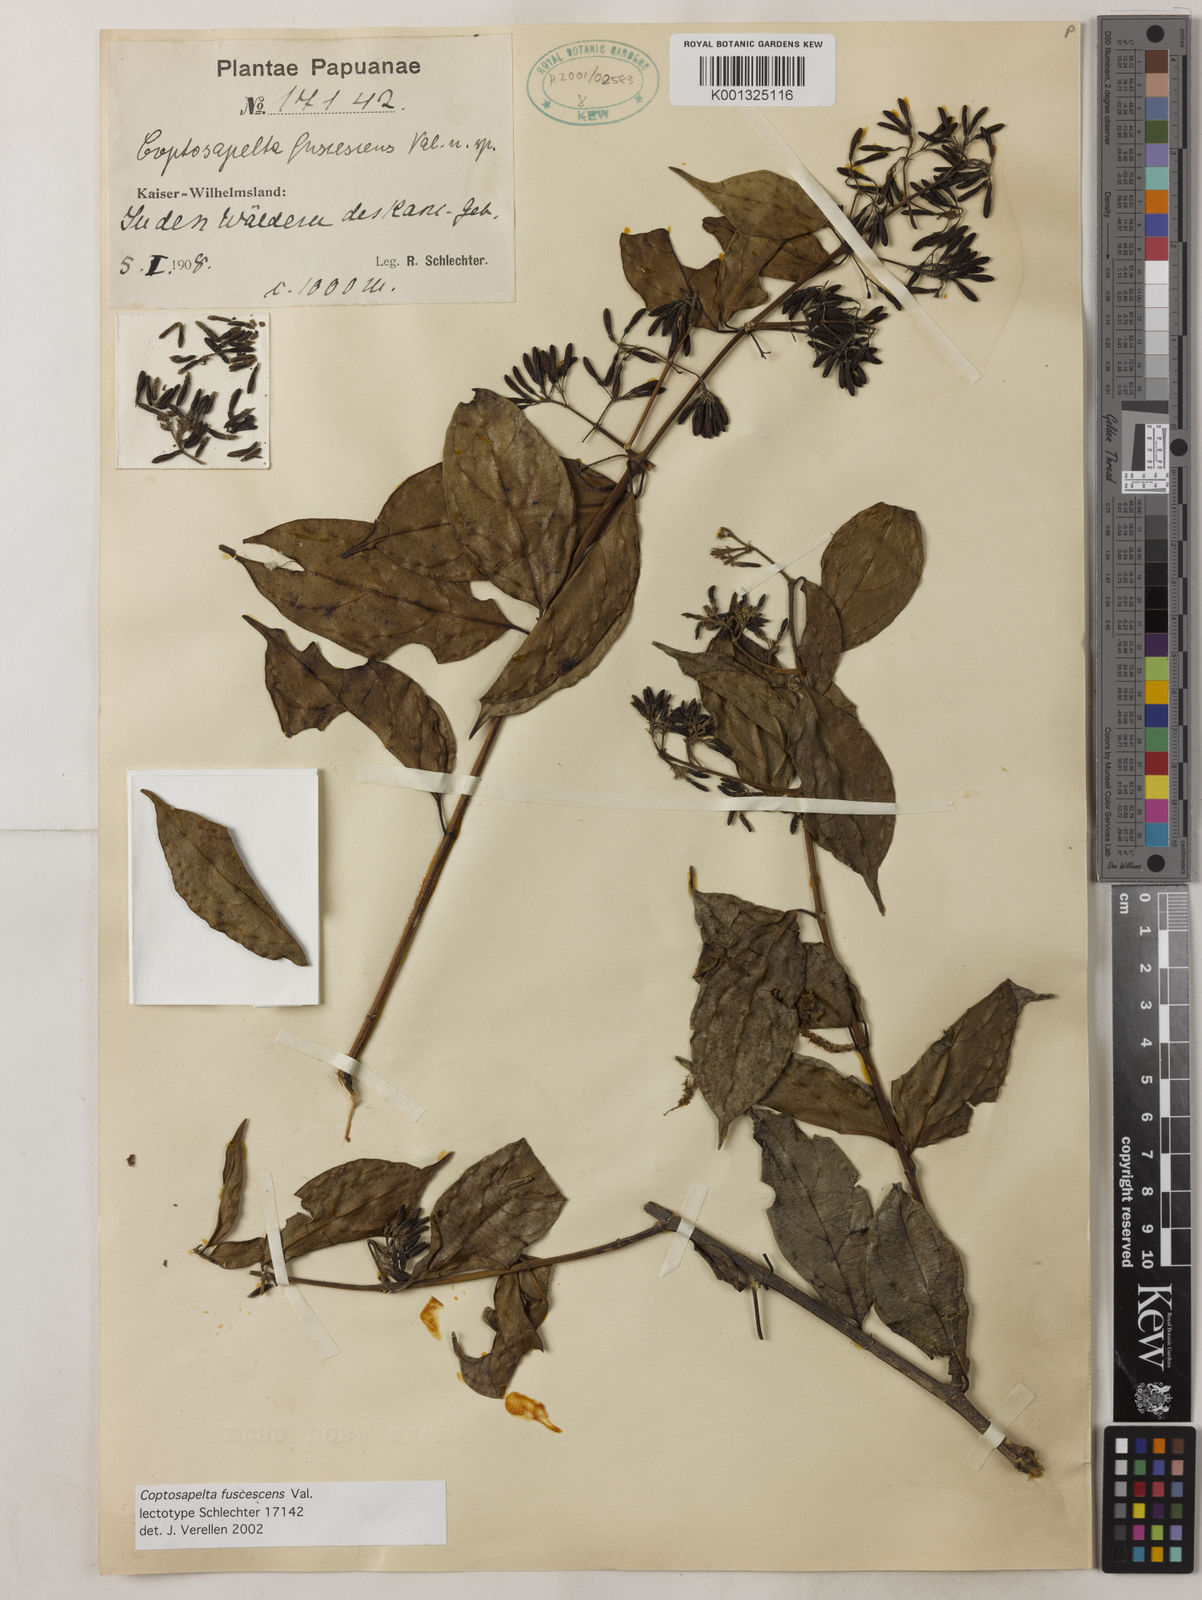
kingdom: Plantae
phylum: Tracheophyta
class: Magnoliopsida
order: Gentianales
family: Rubiaceae
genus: Coptosapelta
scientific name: Coptosapelta fuscescens
